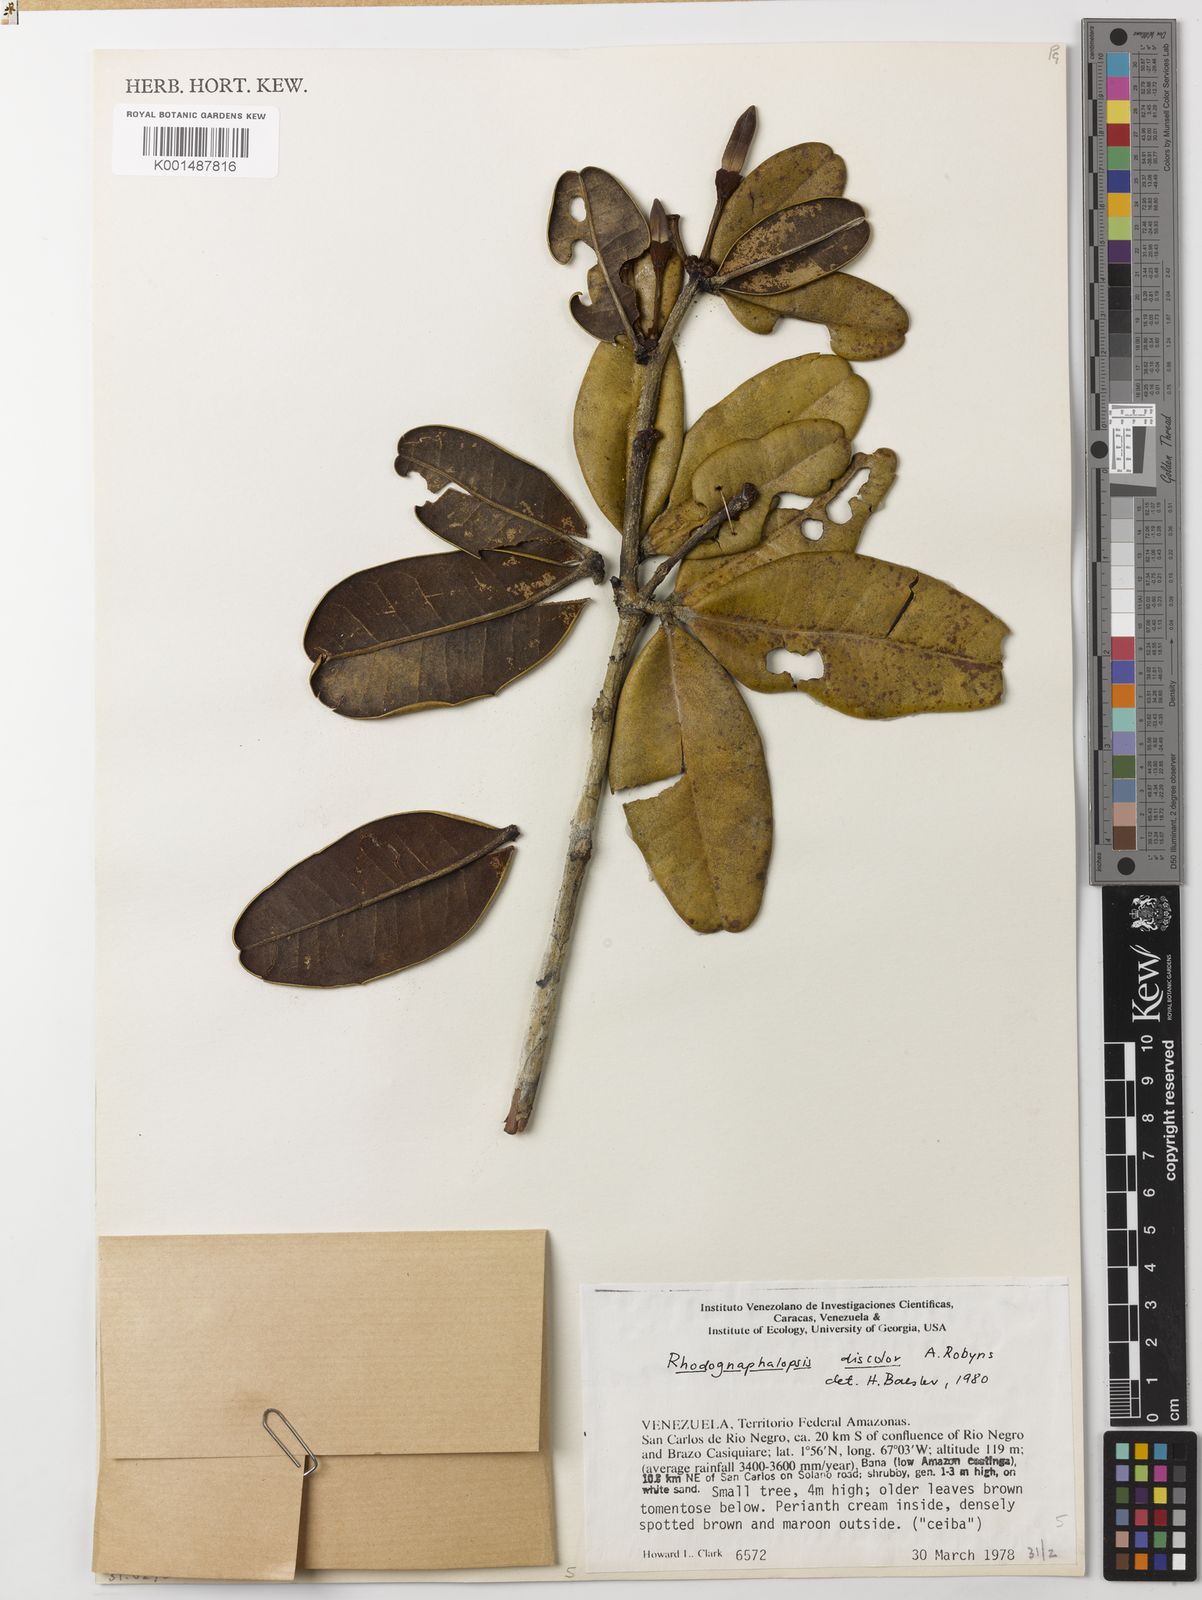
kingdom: Plantae
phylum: Tracheophyta
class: Magnoliopsida
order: Malvales
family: Malvaceae
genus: Pachira
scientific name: Pachira sordida
